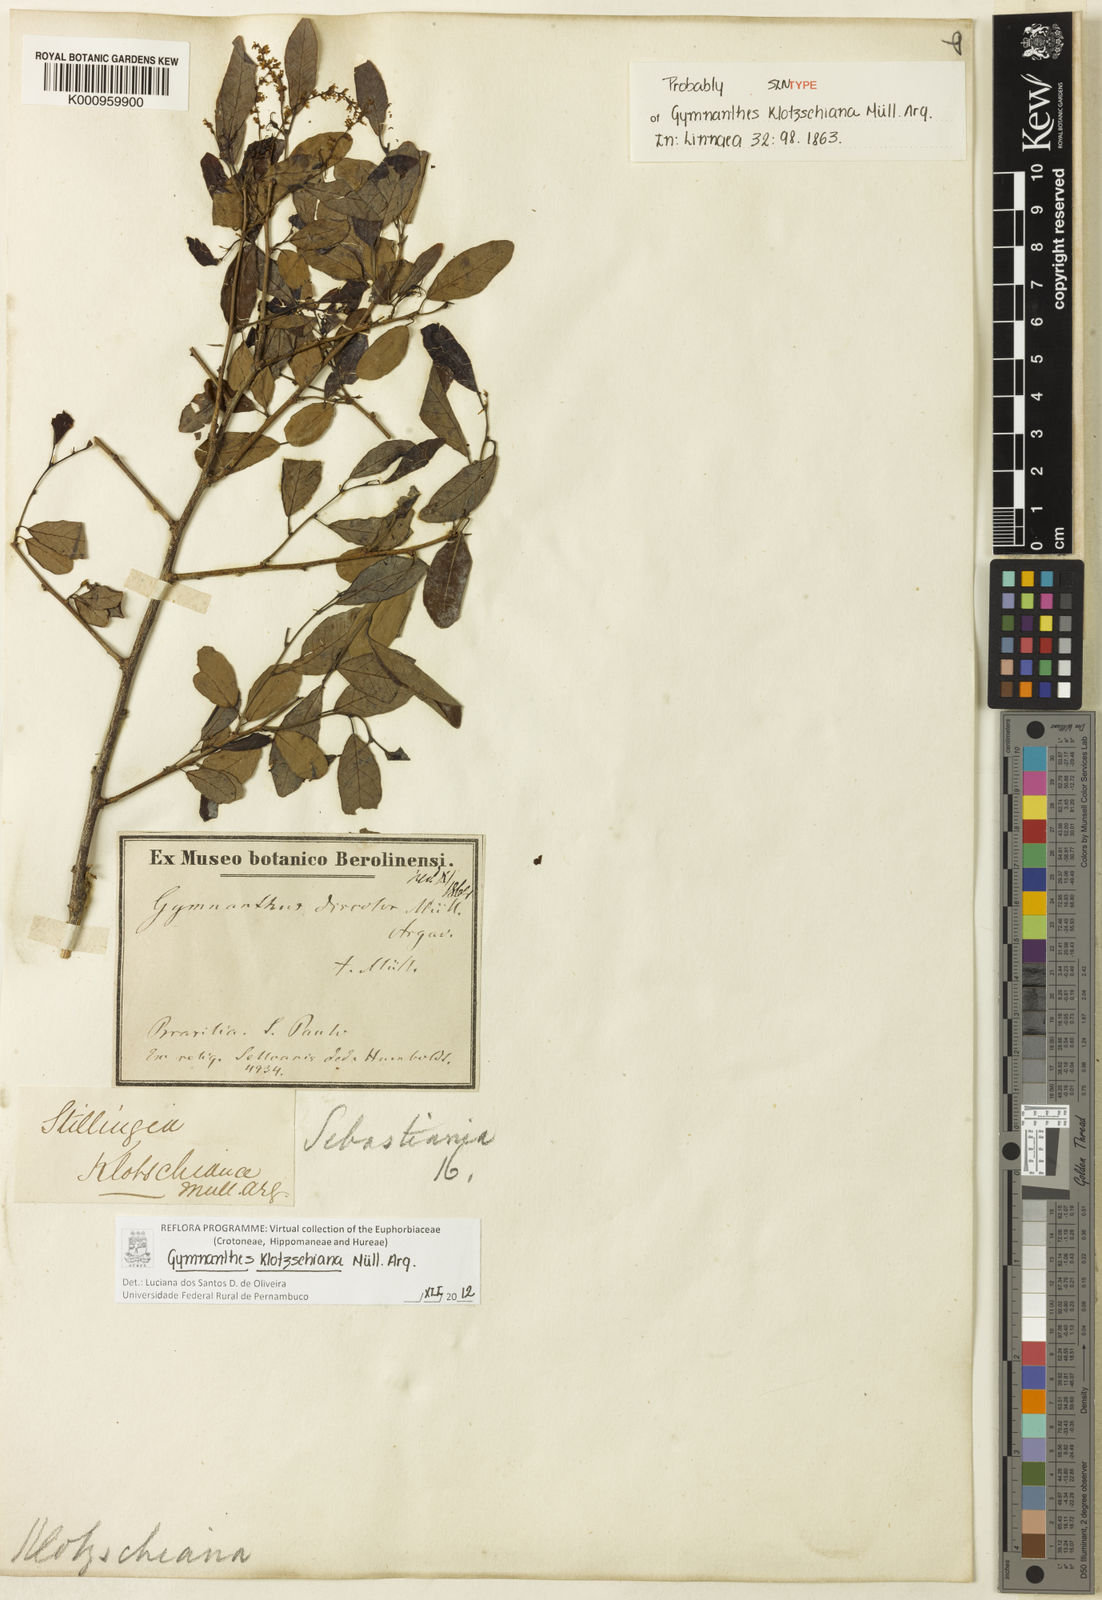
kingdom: Plantae
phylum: Tracheophyta
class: Magnoliopsida
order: Malpighiales
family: Euphorbiaceae
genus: Gymnanthes
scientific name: Gymnanthes
